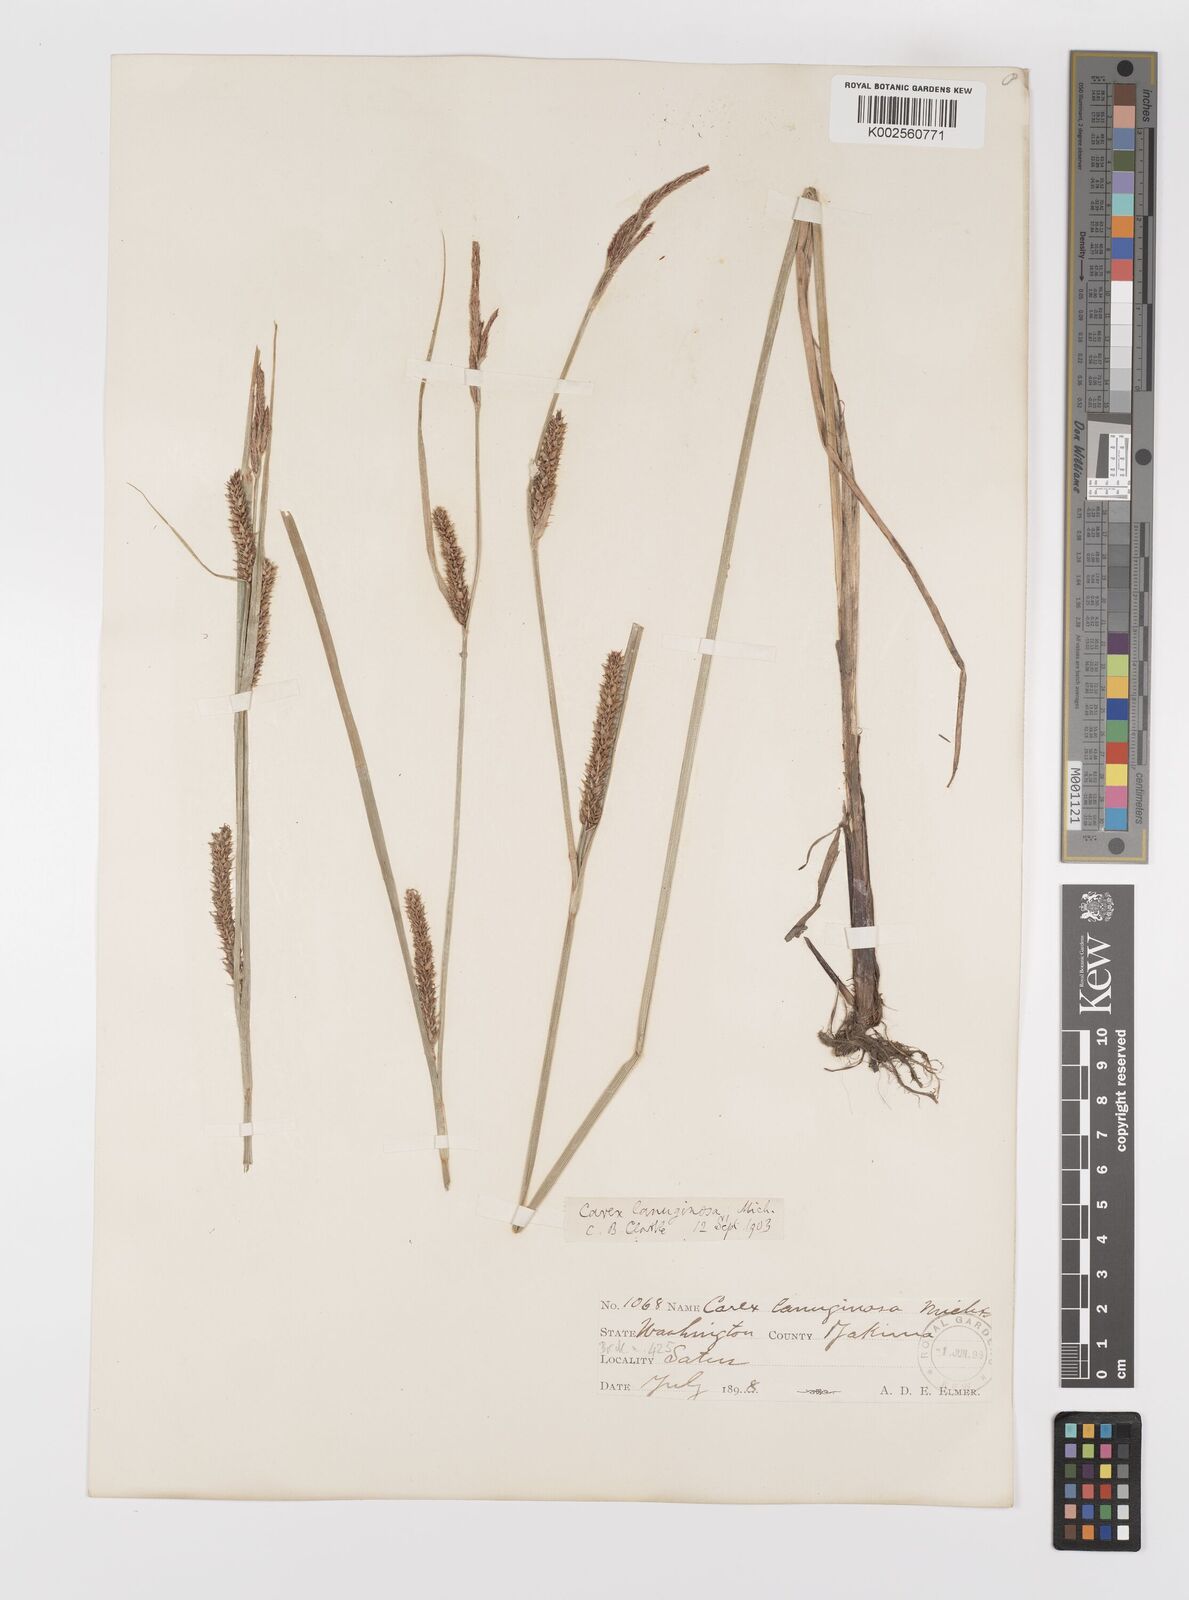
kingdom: Plantae
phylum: Tracheophyta
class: Liliopsida
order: Poales
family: Cyperaceae
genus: Carex
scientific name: Carex lasiocarpa
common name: Slender sedge
